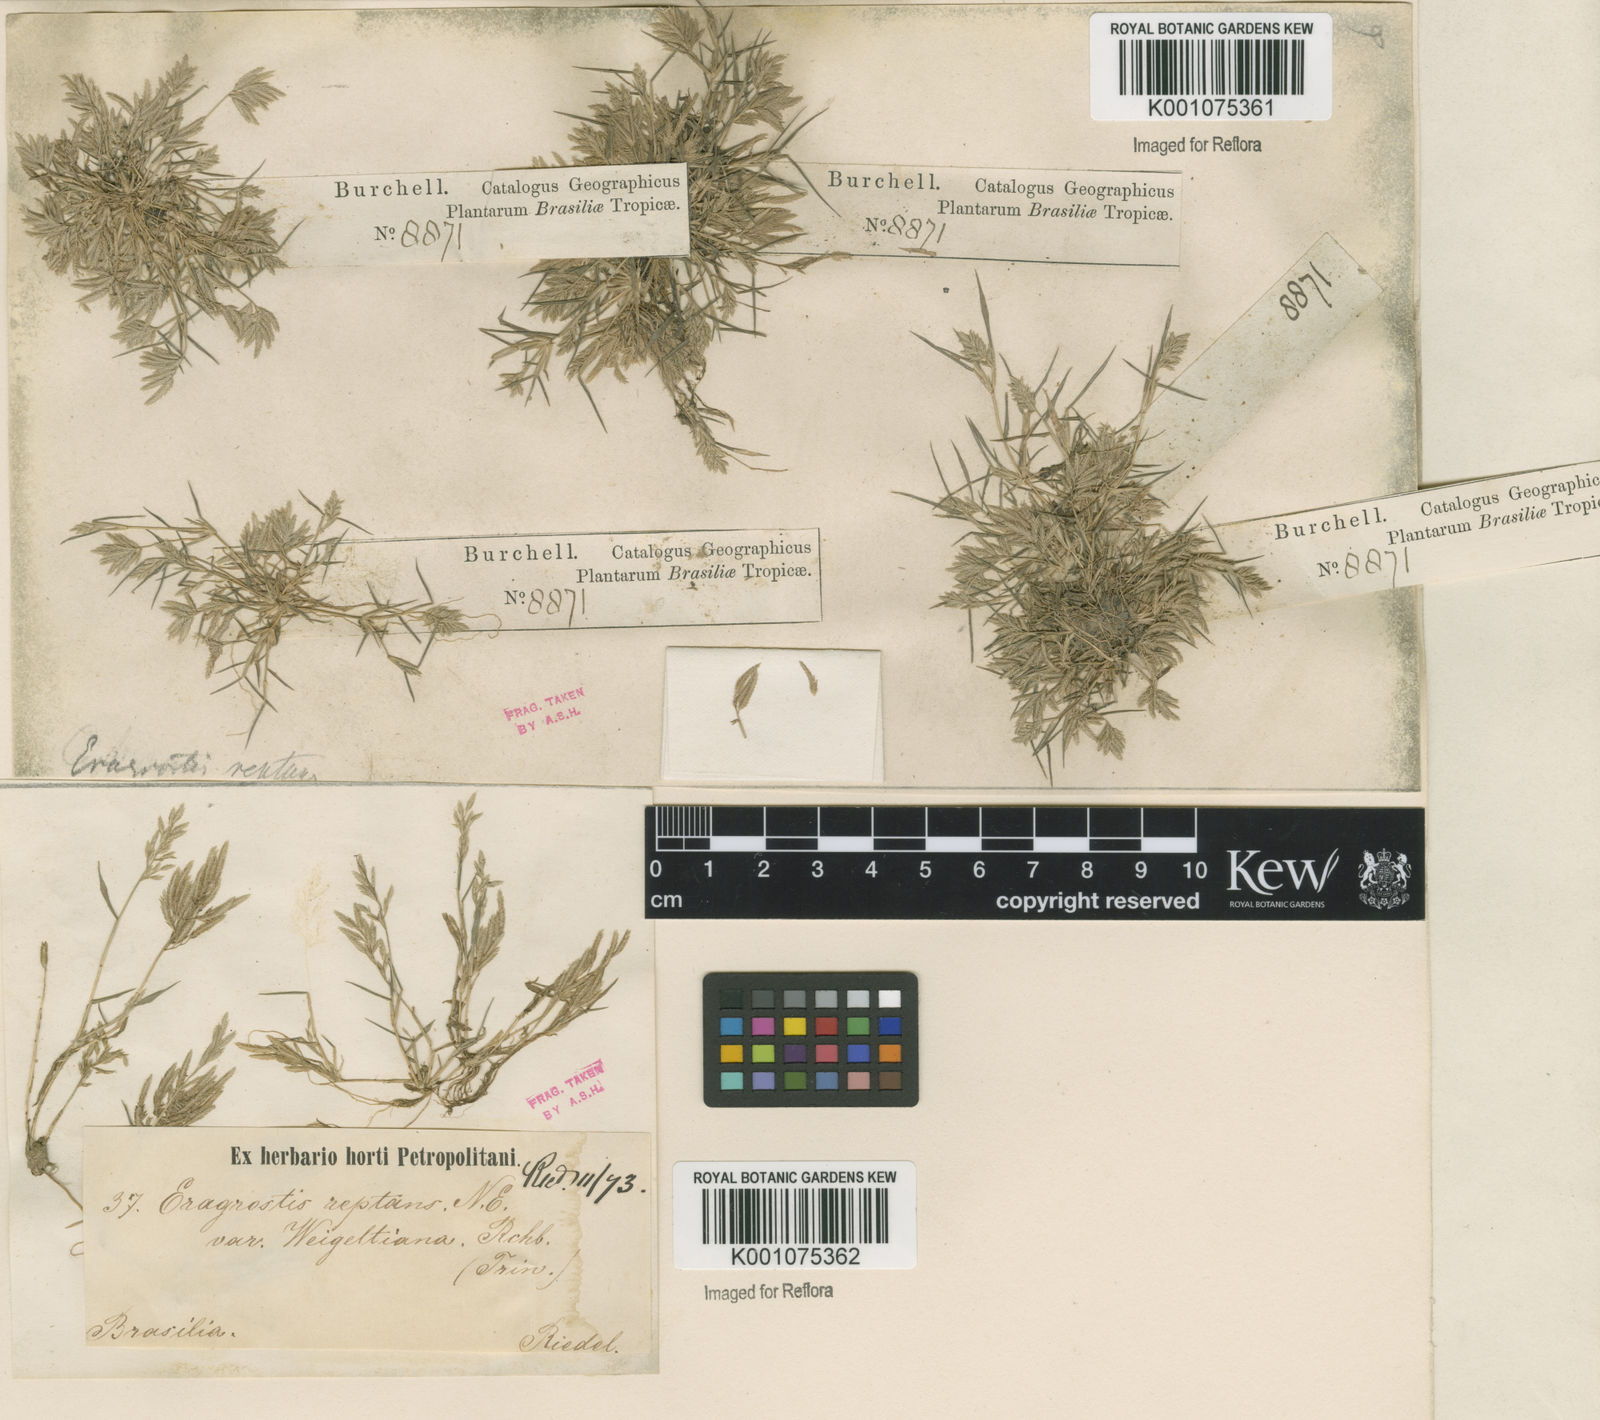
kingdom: Plantae
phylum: Tracheophyta
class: Liliopsida
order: Poales
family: Poaceae
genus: Eragrostis
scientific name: Eragrostis
